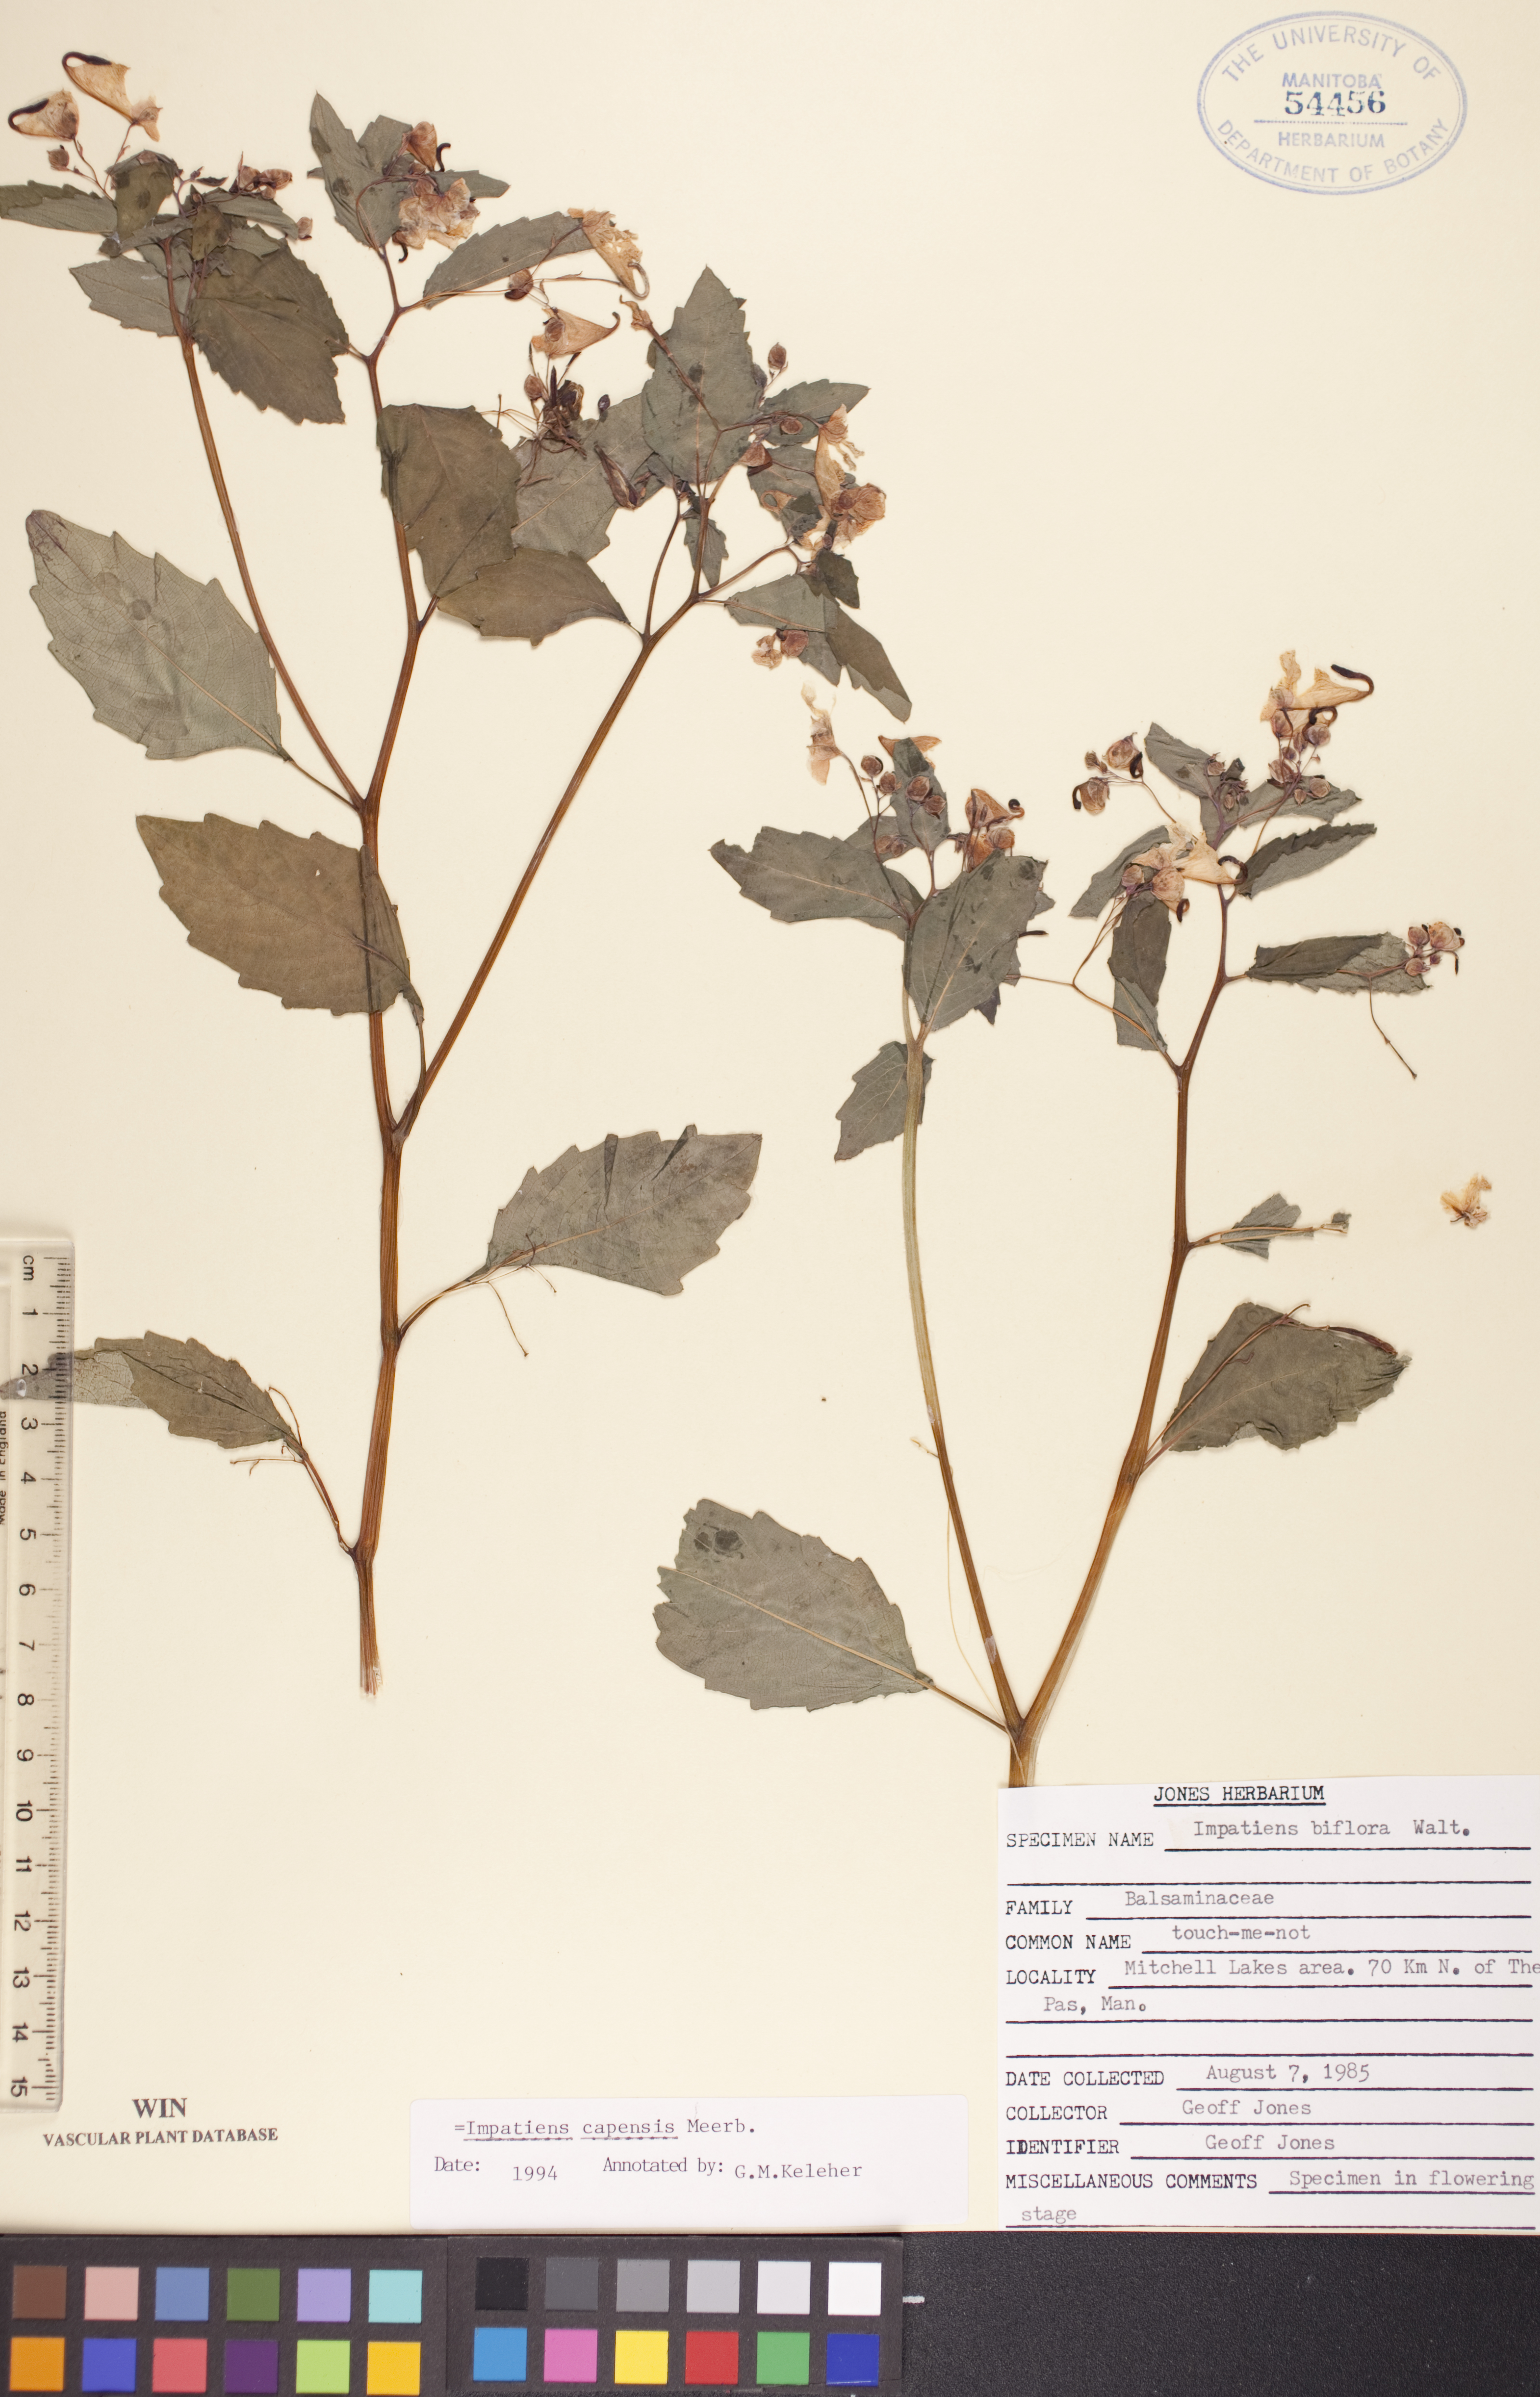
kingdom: Plantae
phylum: Tracheophyta
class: Magnoliopsida
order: Ericales
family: Balsaminaceae
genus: Impatiens
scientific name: Impatiens capensis
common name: Orange balsam
